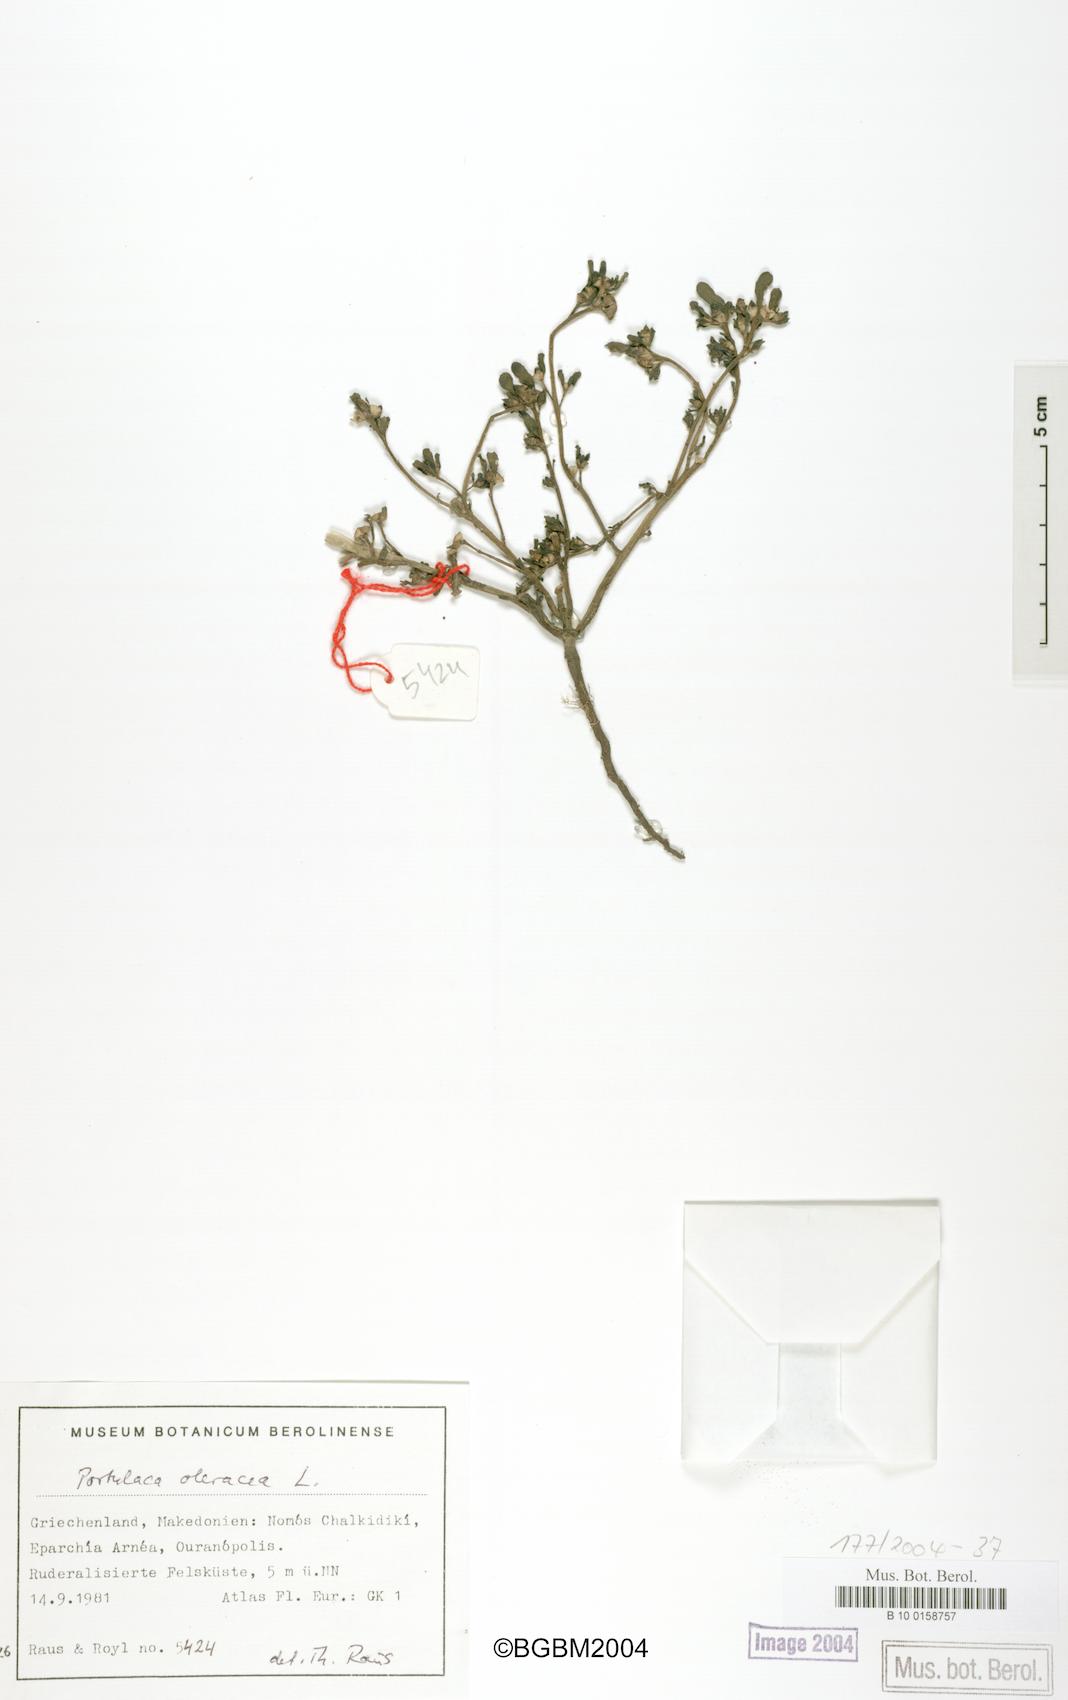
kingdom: Plantae
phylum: Tracheophyta
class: Magnoliopsida
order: Caryophyllales
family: Portulacaceae
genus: Portulaca
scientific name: Portulaca oleracea
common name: Common purslane
